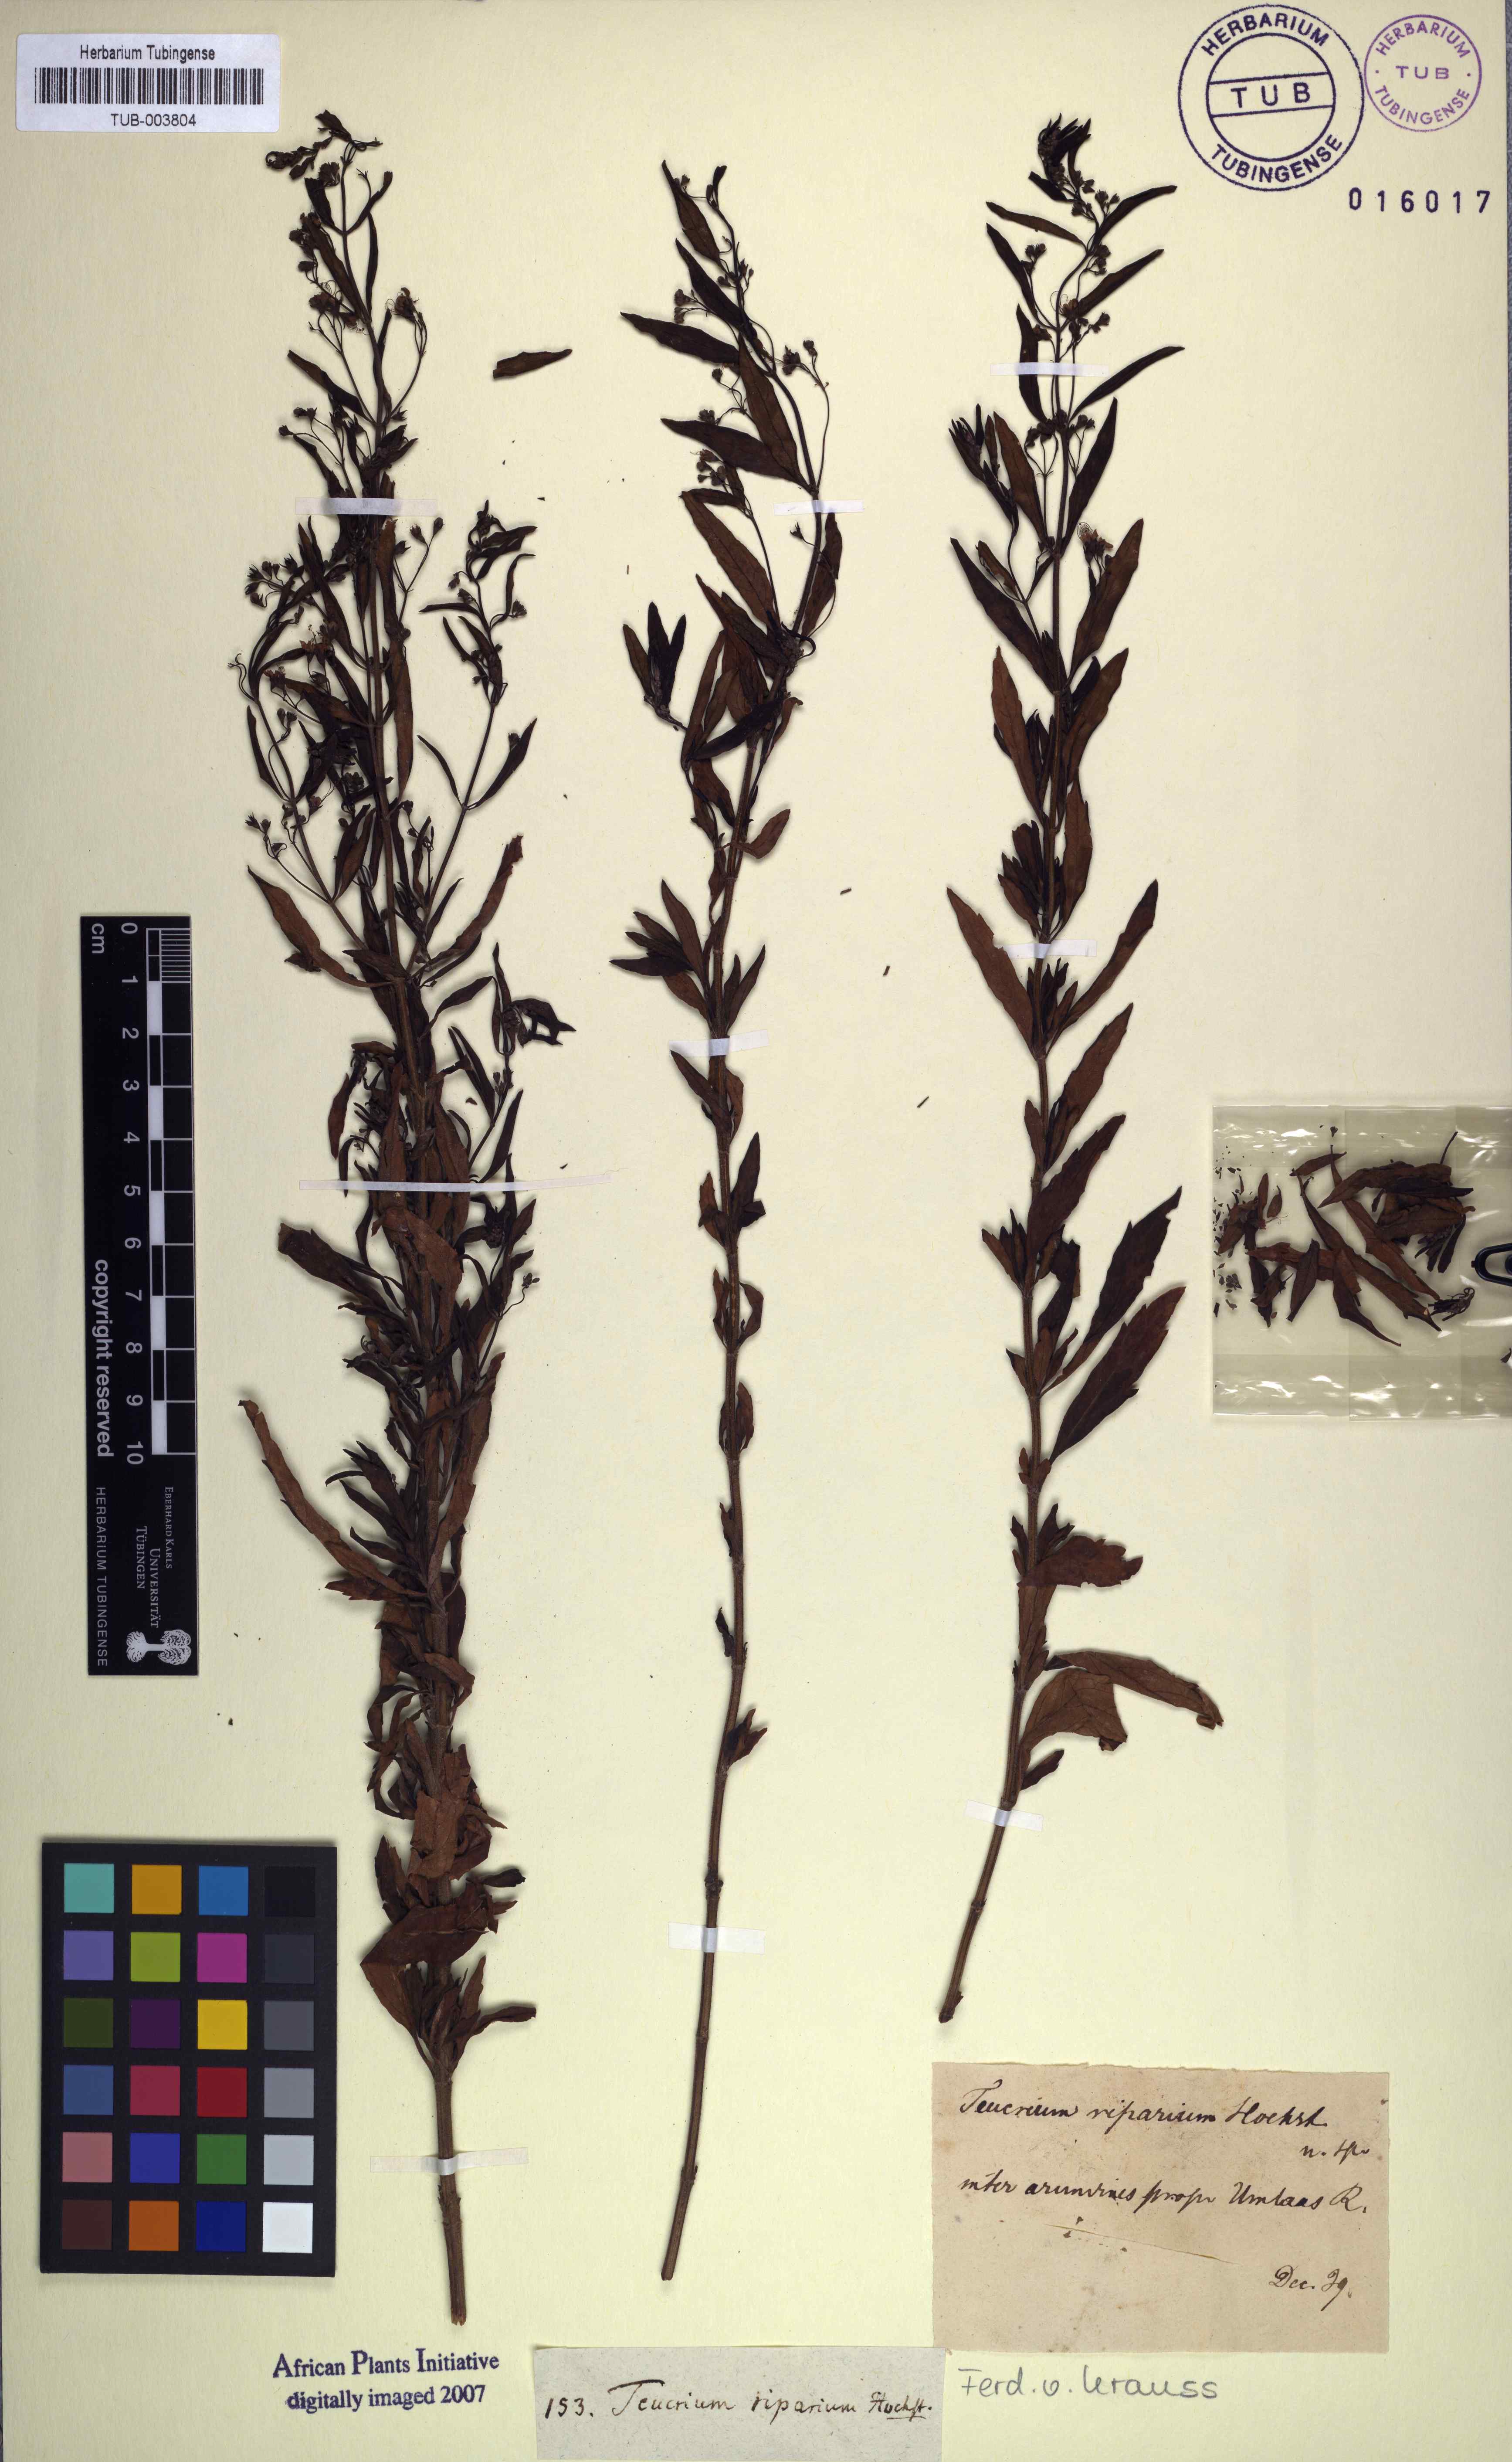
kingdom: Plantae
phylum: Tracheophyta
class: Magnoliopsida
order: Lamiales
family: Lamiaceae
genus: Teucrium
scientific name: Teucrium kraussii
